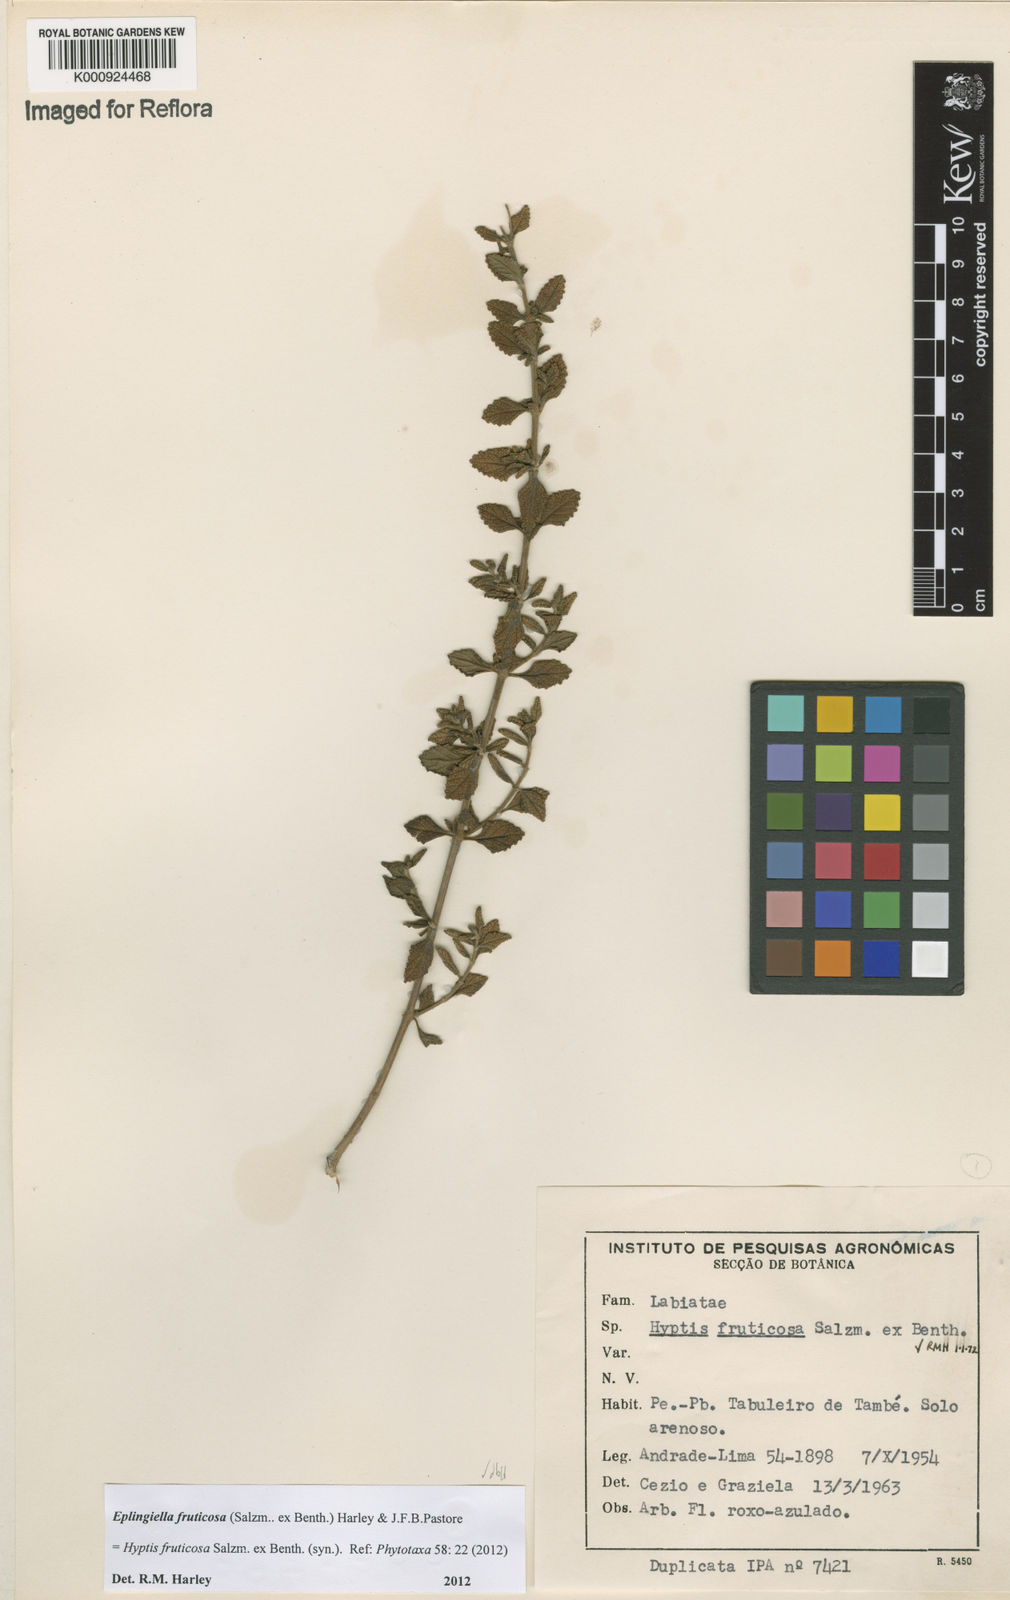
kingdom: Plantae
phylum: Tracheophyta
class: Magnoliopsida
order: Lamiales
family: Lamiaceae
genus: Eplingiella
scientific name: Eplingiella fruticosa
